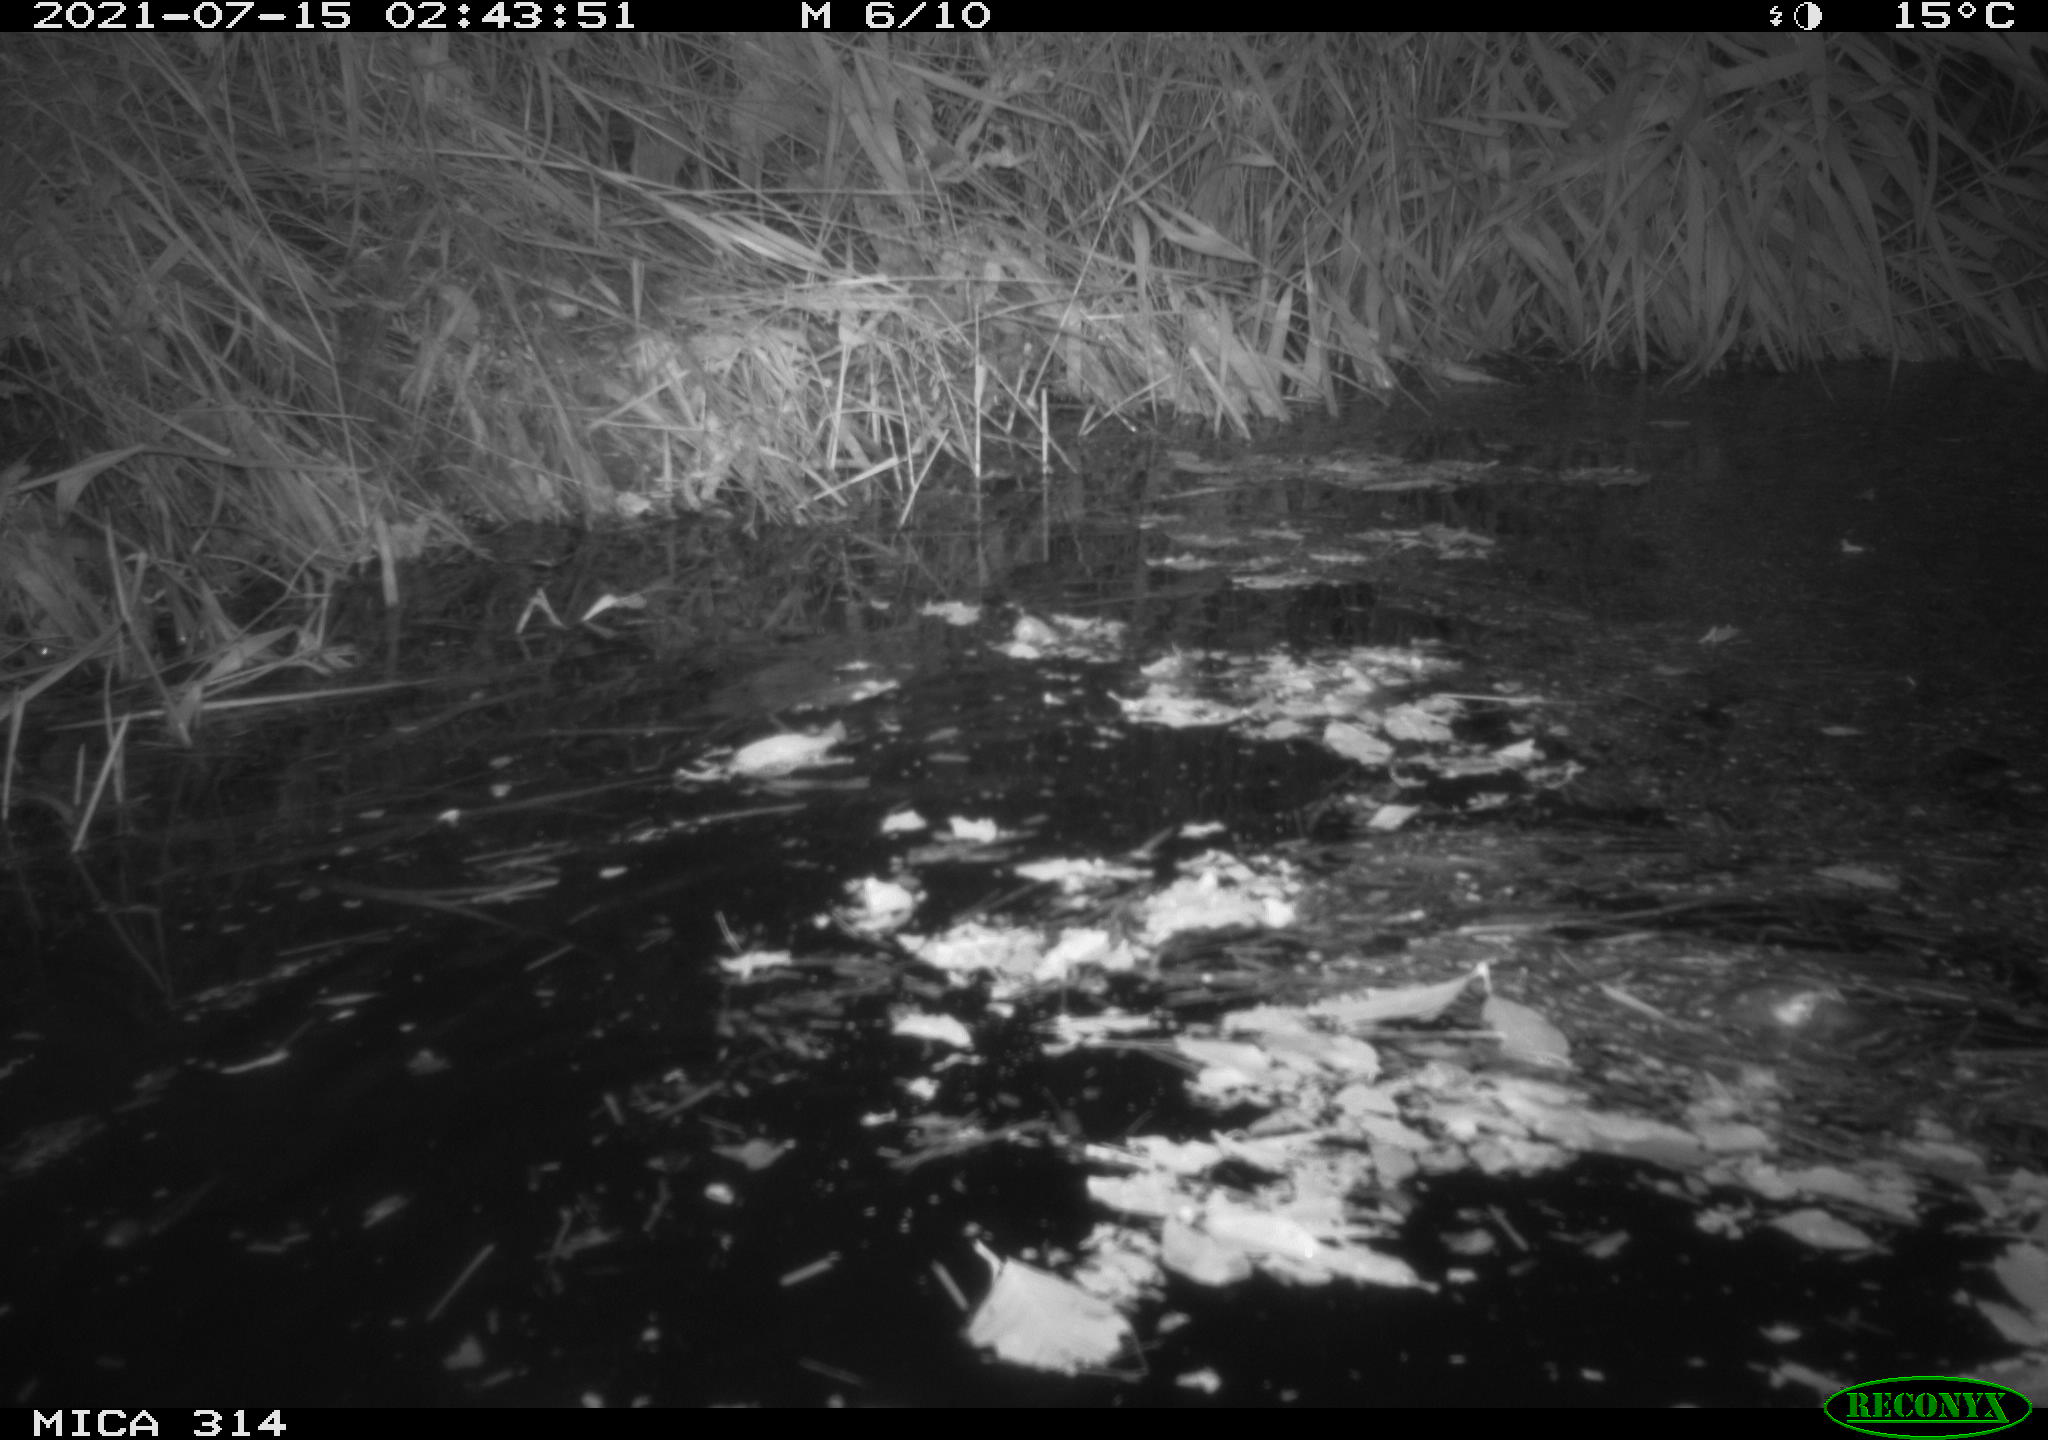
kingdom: Animalia
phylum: Chordata
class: Mammalia
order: Rodentia
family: Muridae
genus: Rattus
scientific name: Rattus norvegicus
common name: Brown rat
